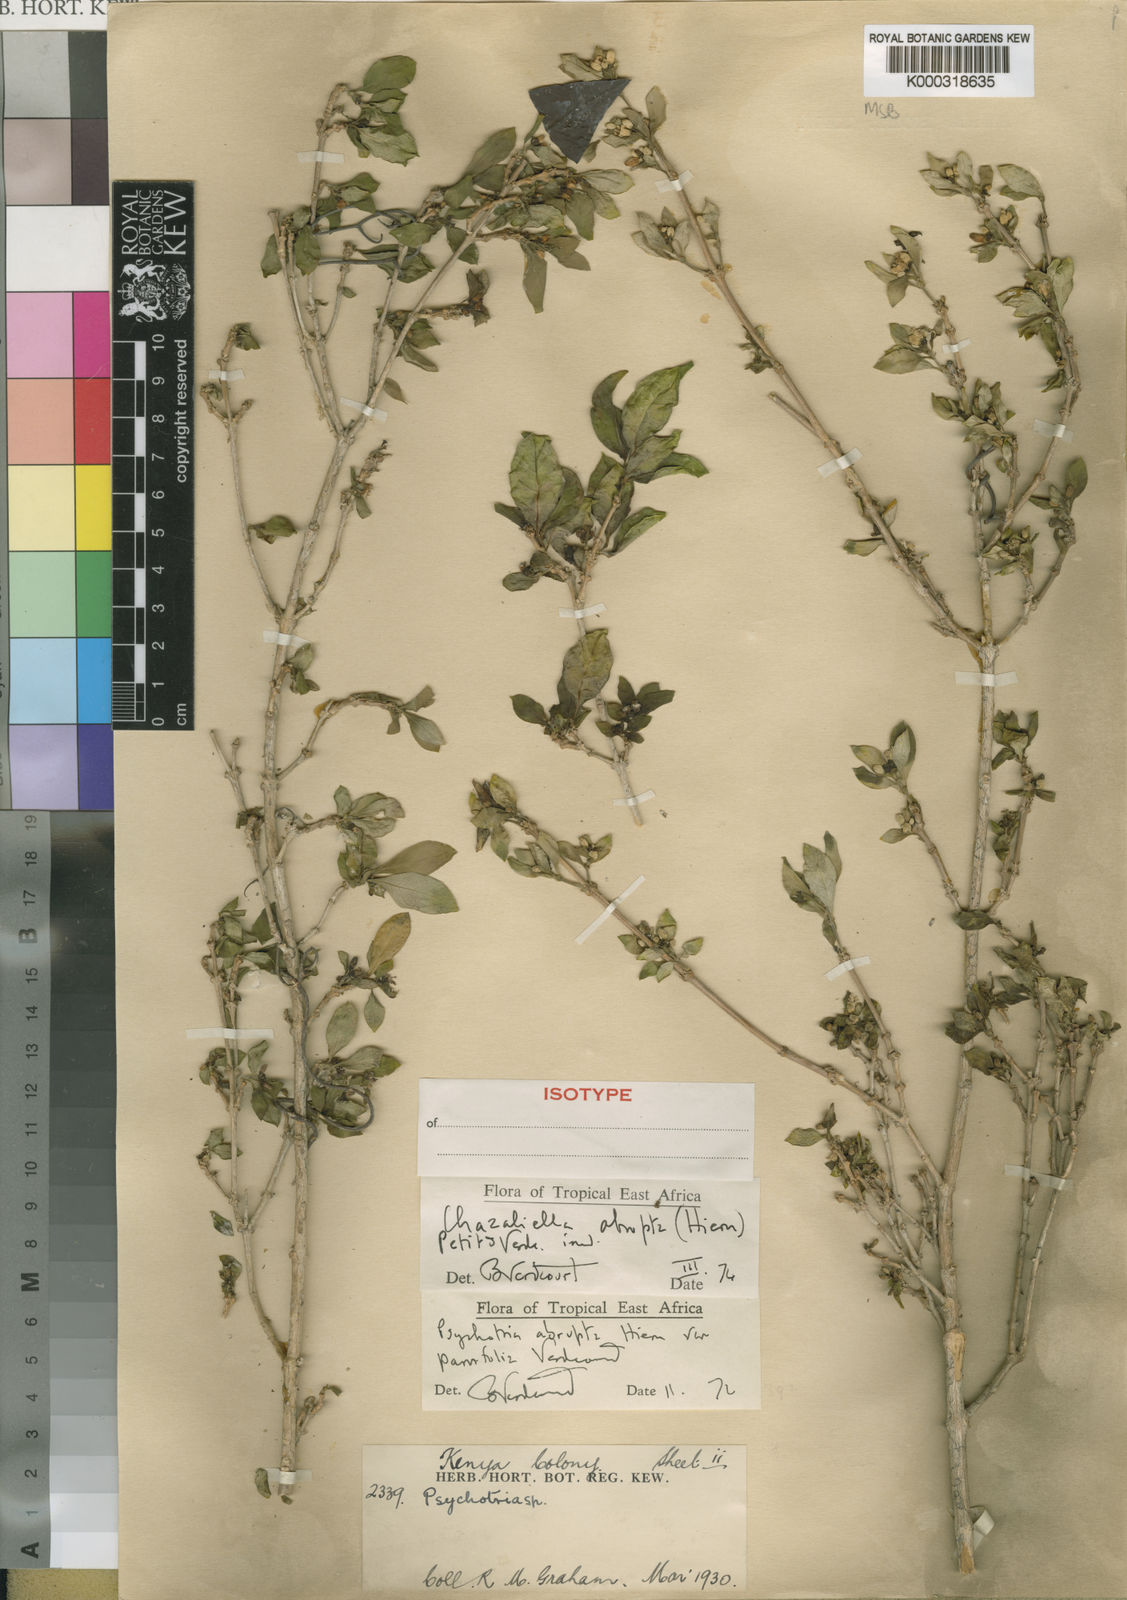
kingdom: Plantae
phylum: Tracheophyta
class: Magnoliopsida
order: Gentianales
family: Rubiaceae
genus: Eumachia
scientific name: Eumachia abrupta
